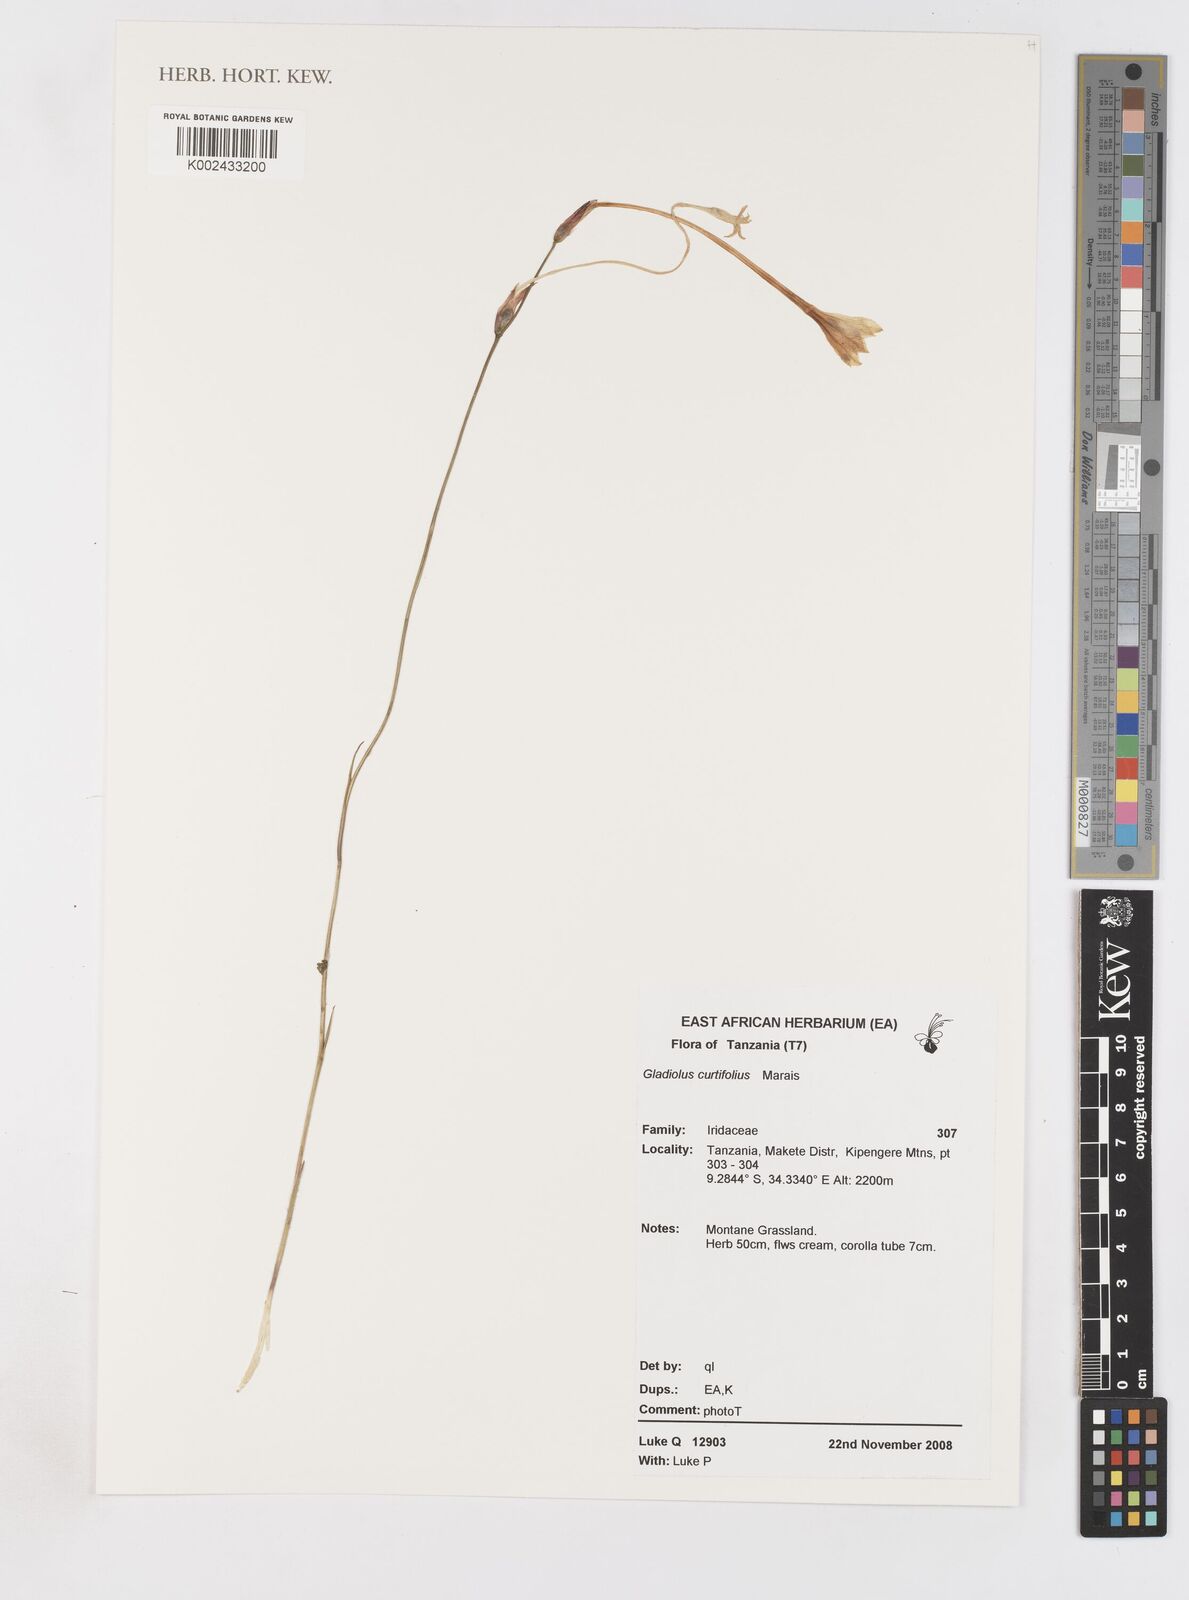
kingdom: Plantae
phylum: Tracheophyta
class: Liliopsida
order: Asparagales
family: Iridaceae
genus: Gladiolus
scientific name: Gladiolus curtifolius
